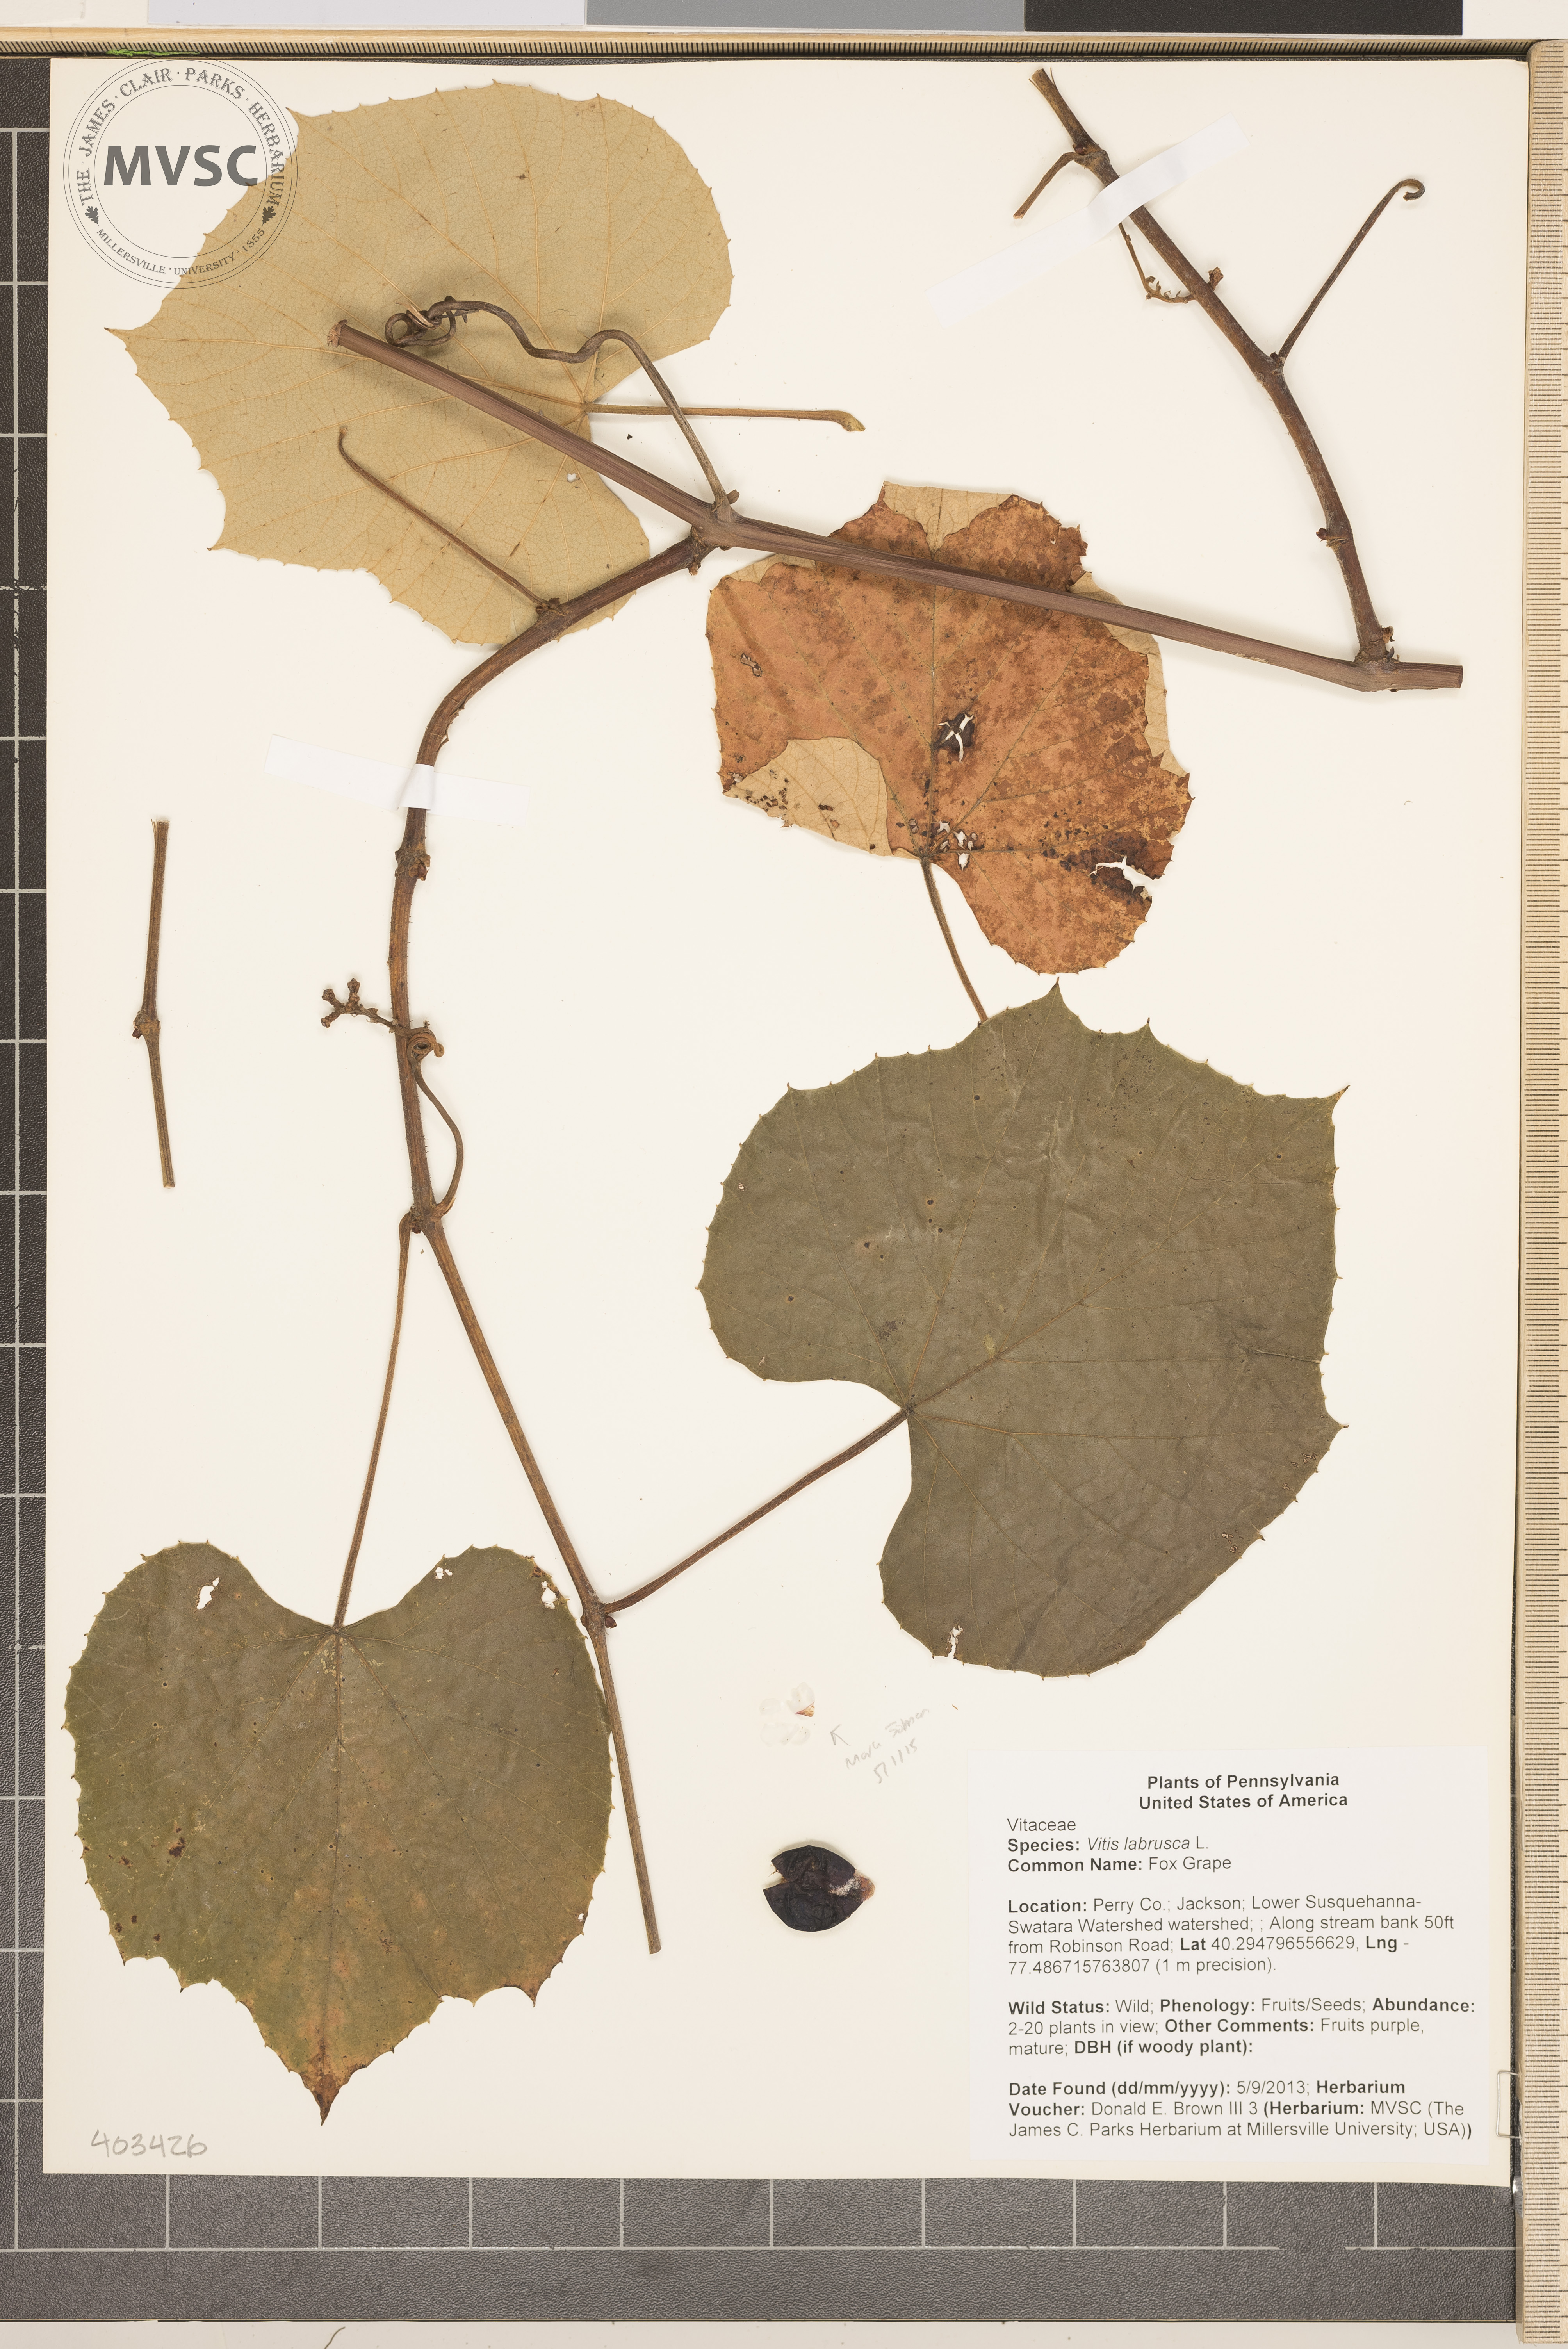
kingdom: Plantae
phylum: Tracheophyta
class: Magnoliopsida
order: Vitales
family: Vitaceae
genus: Vitis
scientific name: Vitis labrusca
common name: Fox Grape
